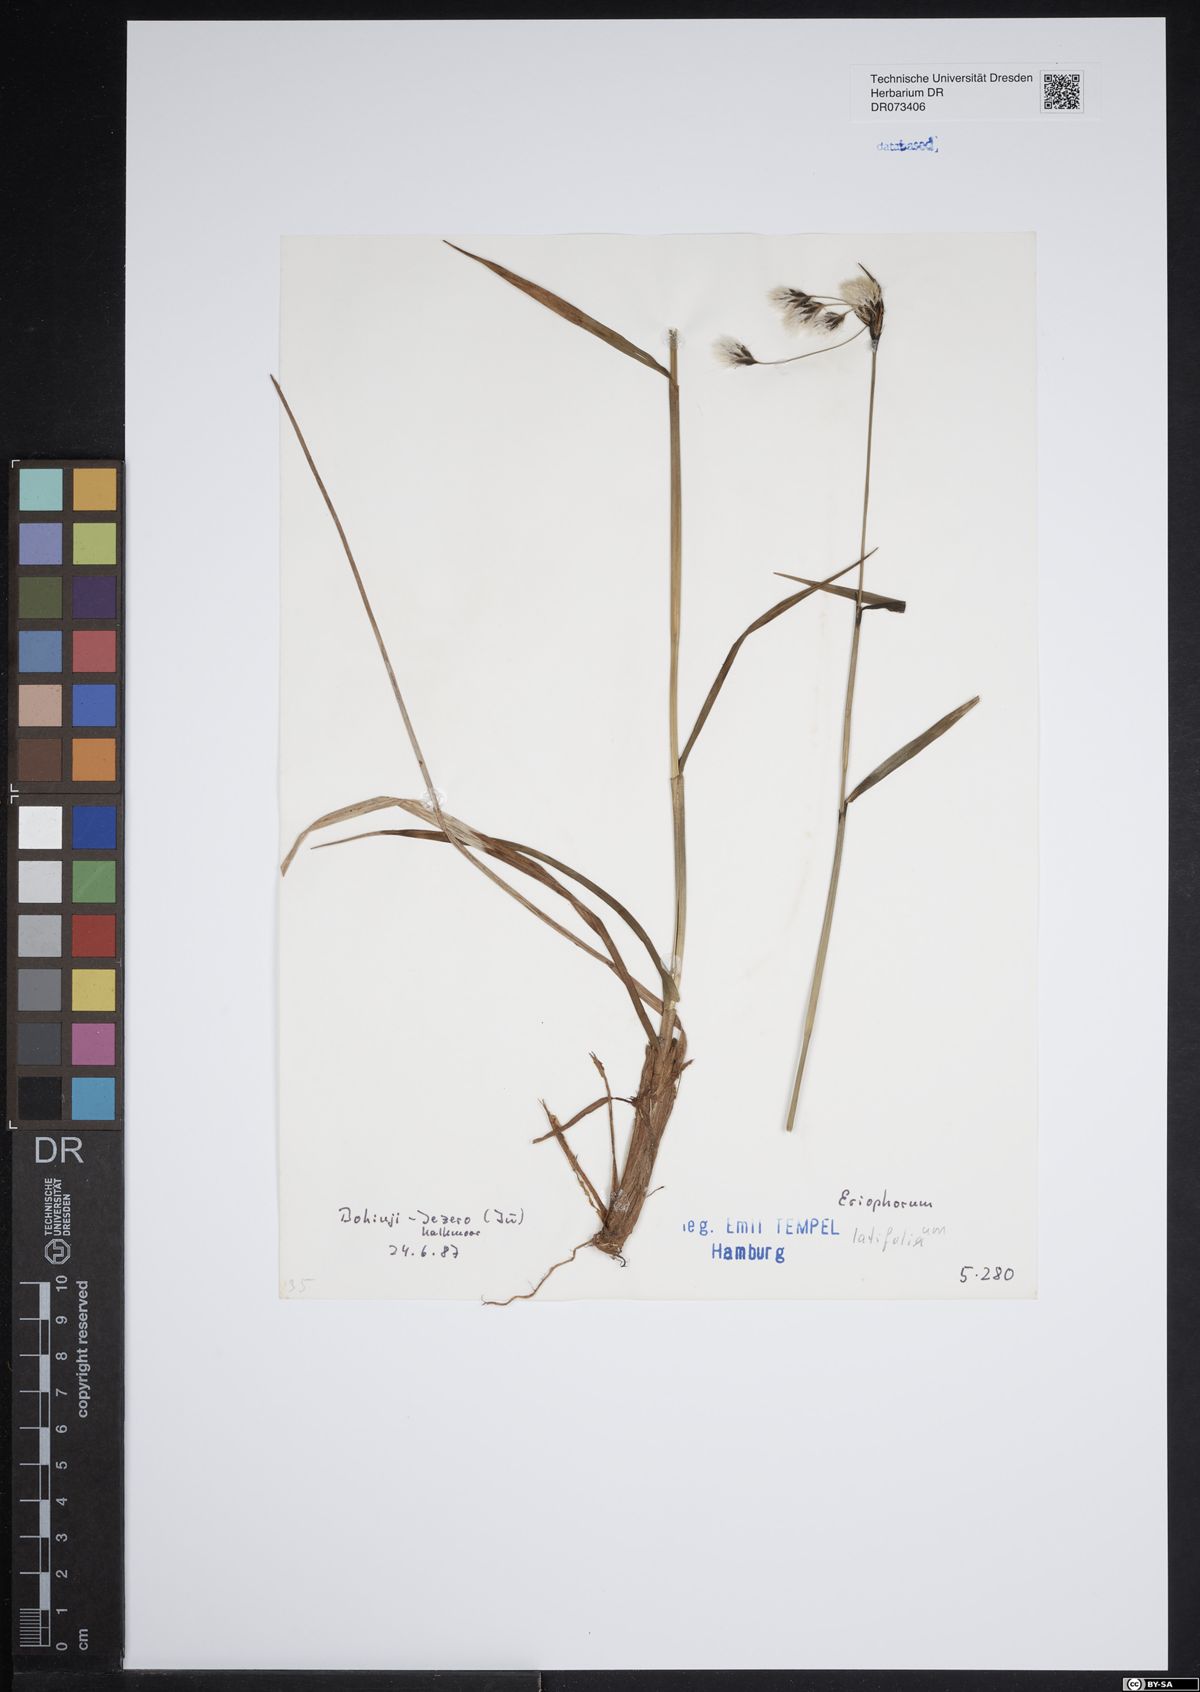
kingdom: Plantae
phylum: Tracheophyta
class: Liliopsida
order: Poales
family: Cyperaceae
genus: Eriophorum
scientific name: Eriophorum latifolium
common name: Broad-leaved cottongrass
